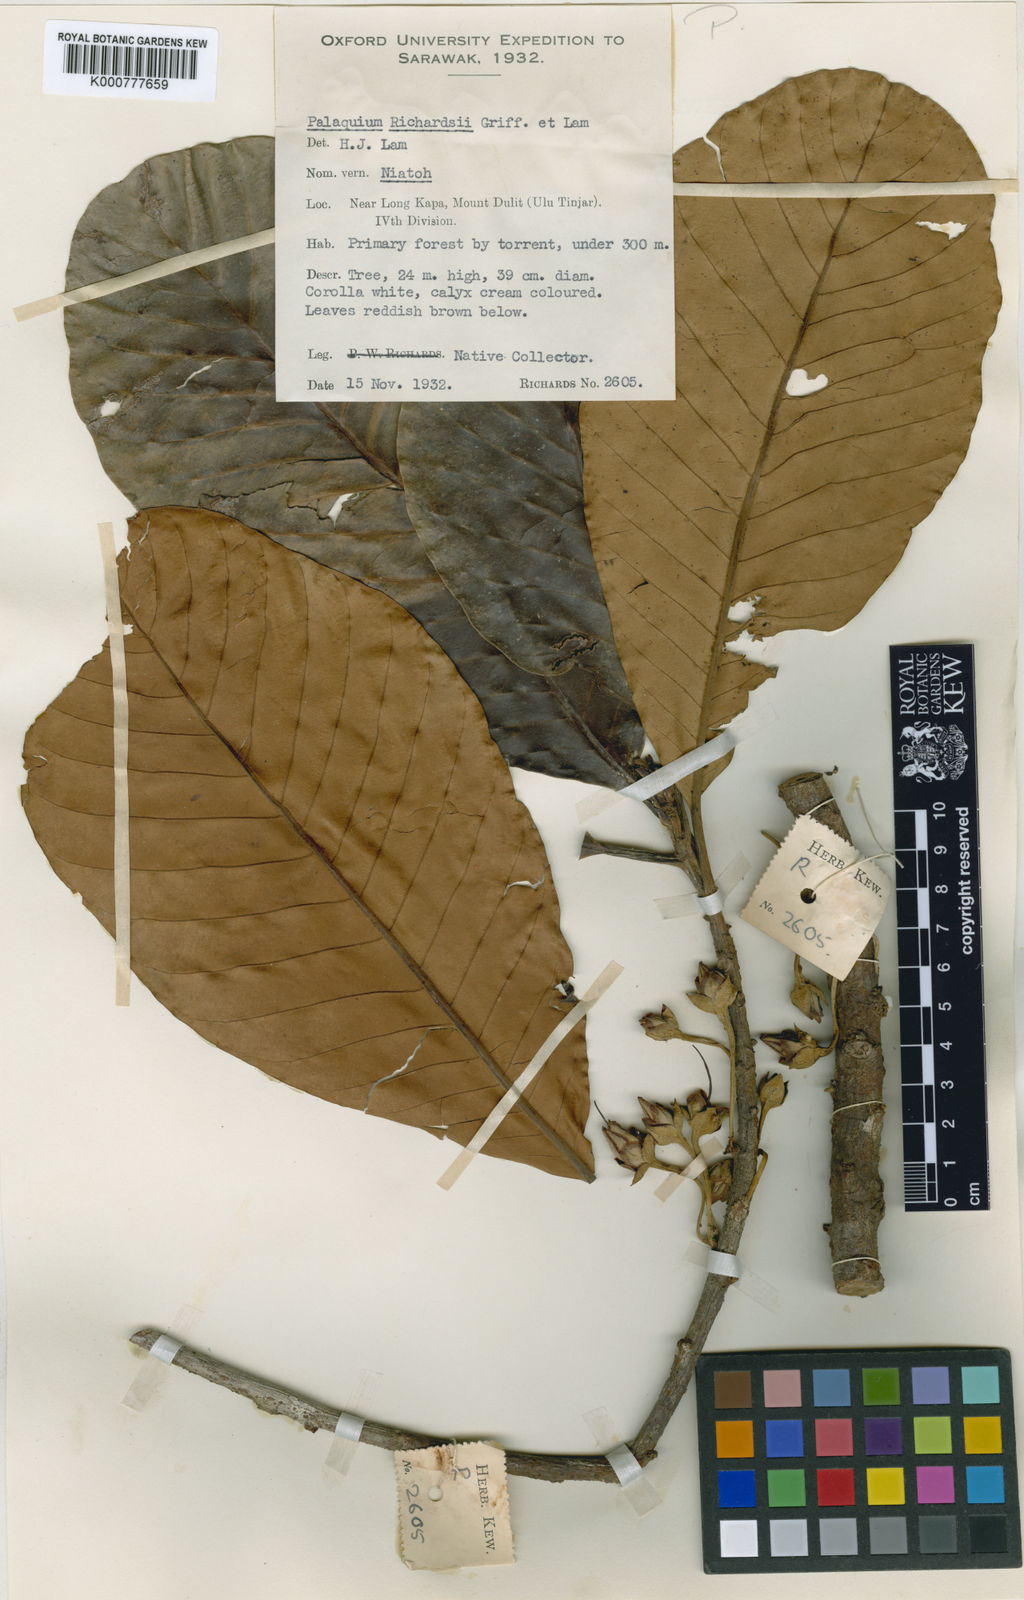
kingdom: Plantae
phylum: Tracheophyta
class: Magnoliopsida
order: Ericales
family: Sapotaceae
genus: Palaquium
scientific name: Palaquium stipulare
